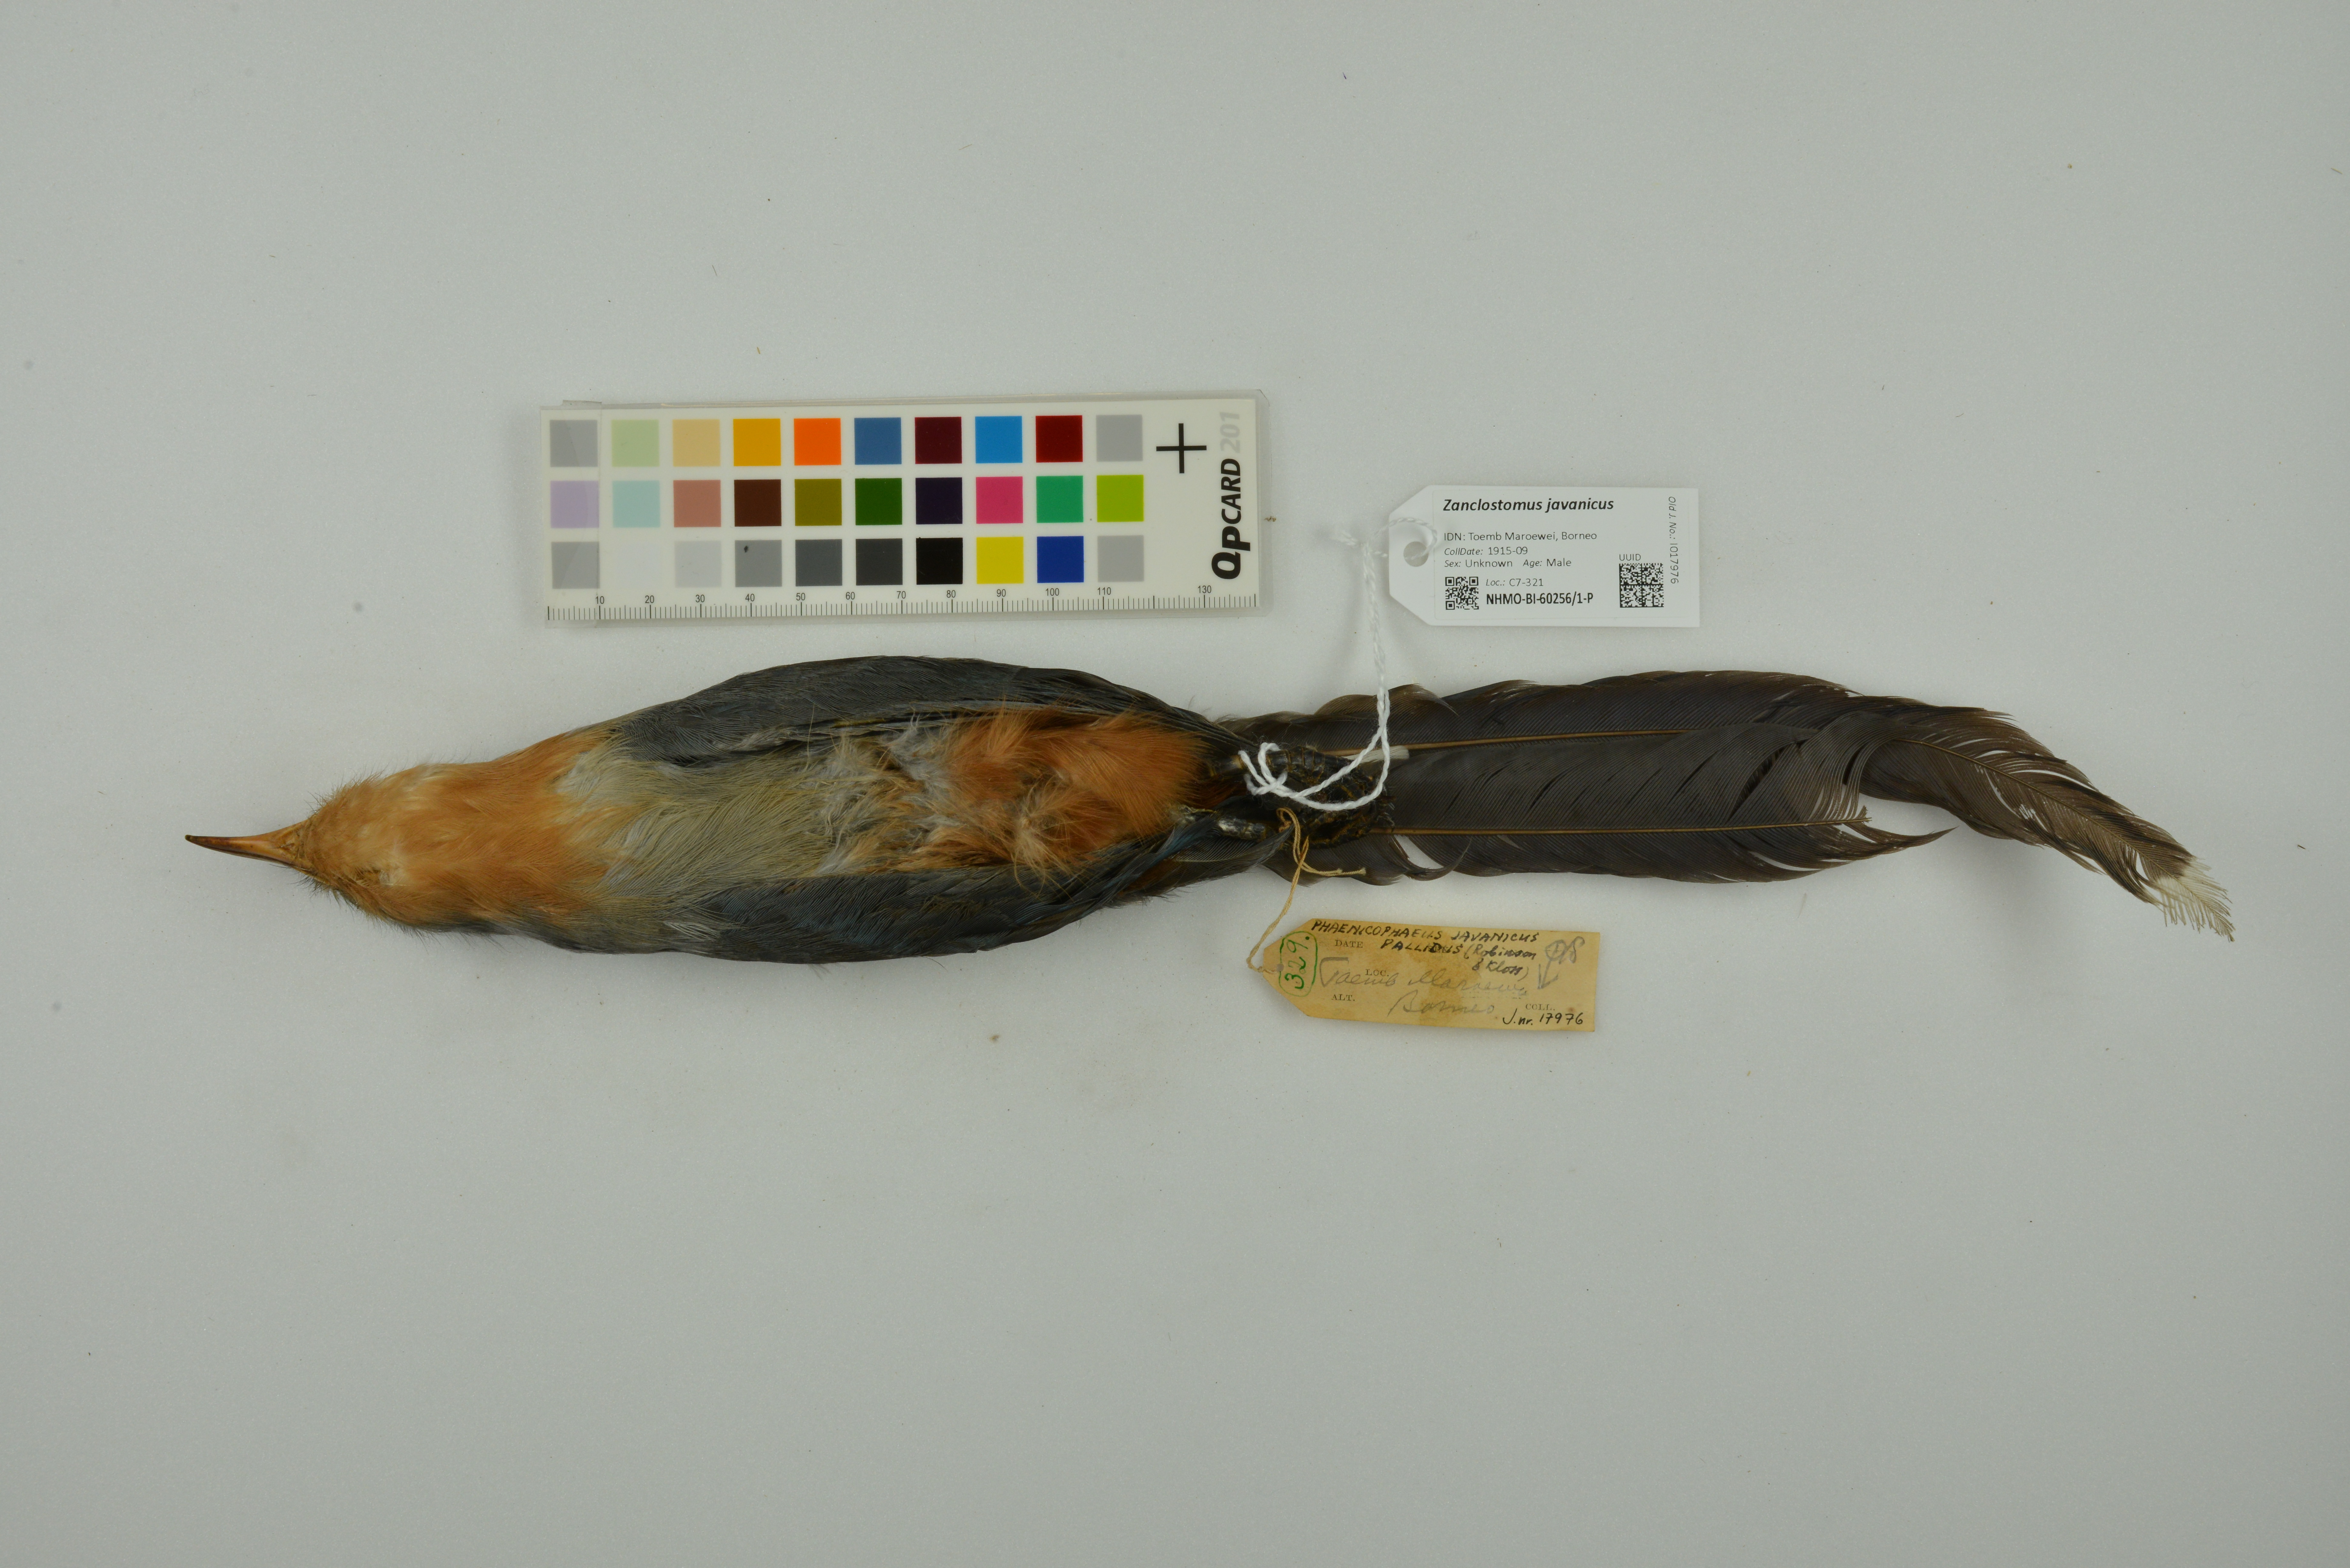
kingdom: Animalia
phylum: Chordata
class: Aves
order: Cuculiformes
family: Cuculidae
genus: Zanclostomus
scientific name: Zanclostomus javanicus
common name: Red-billed malkoha
